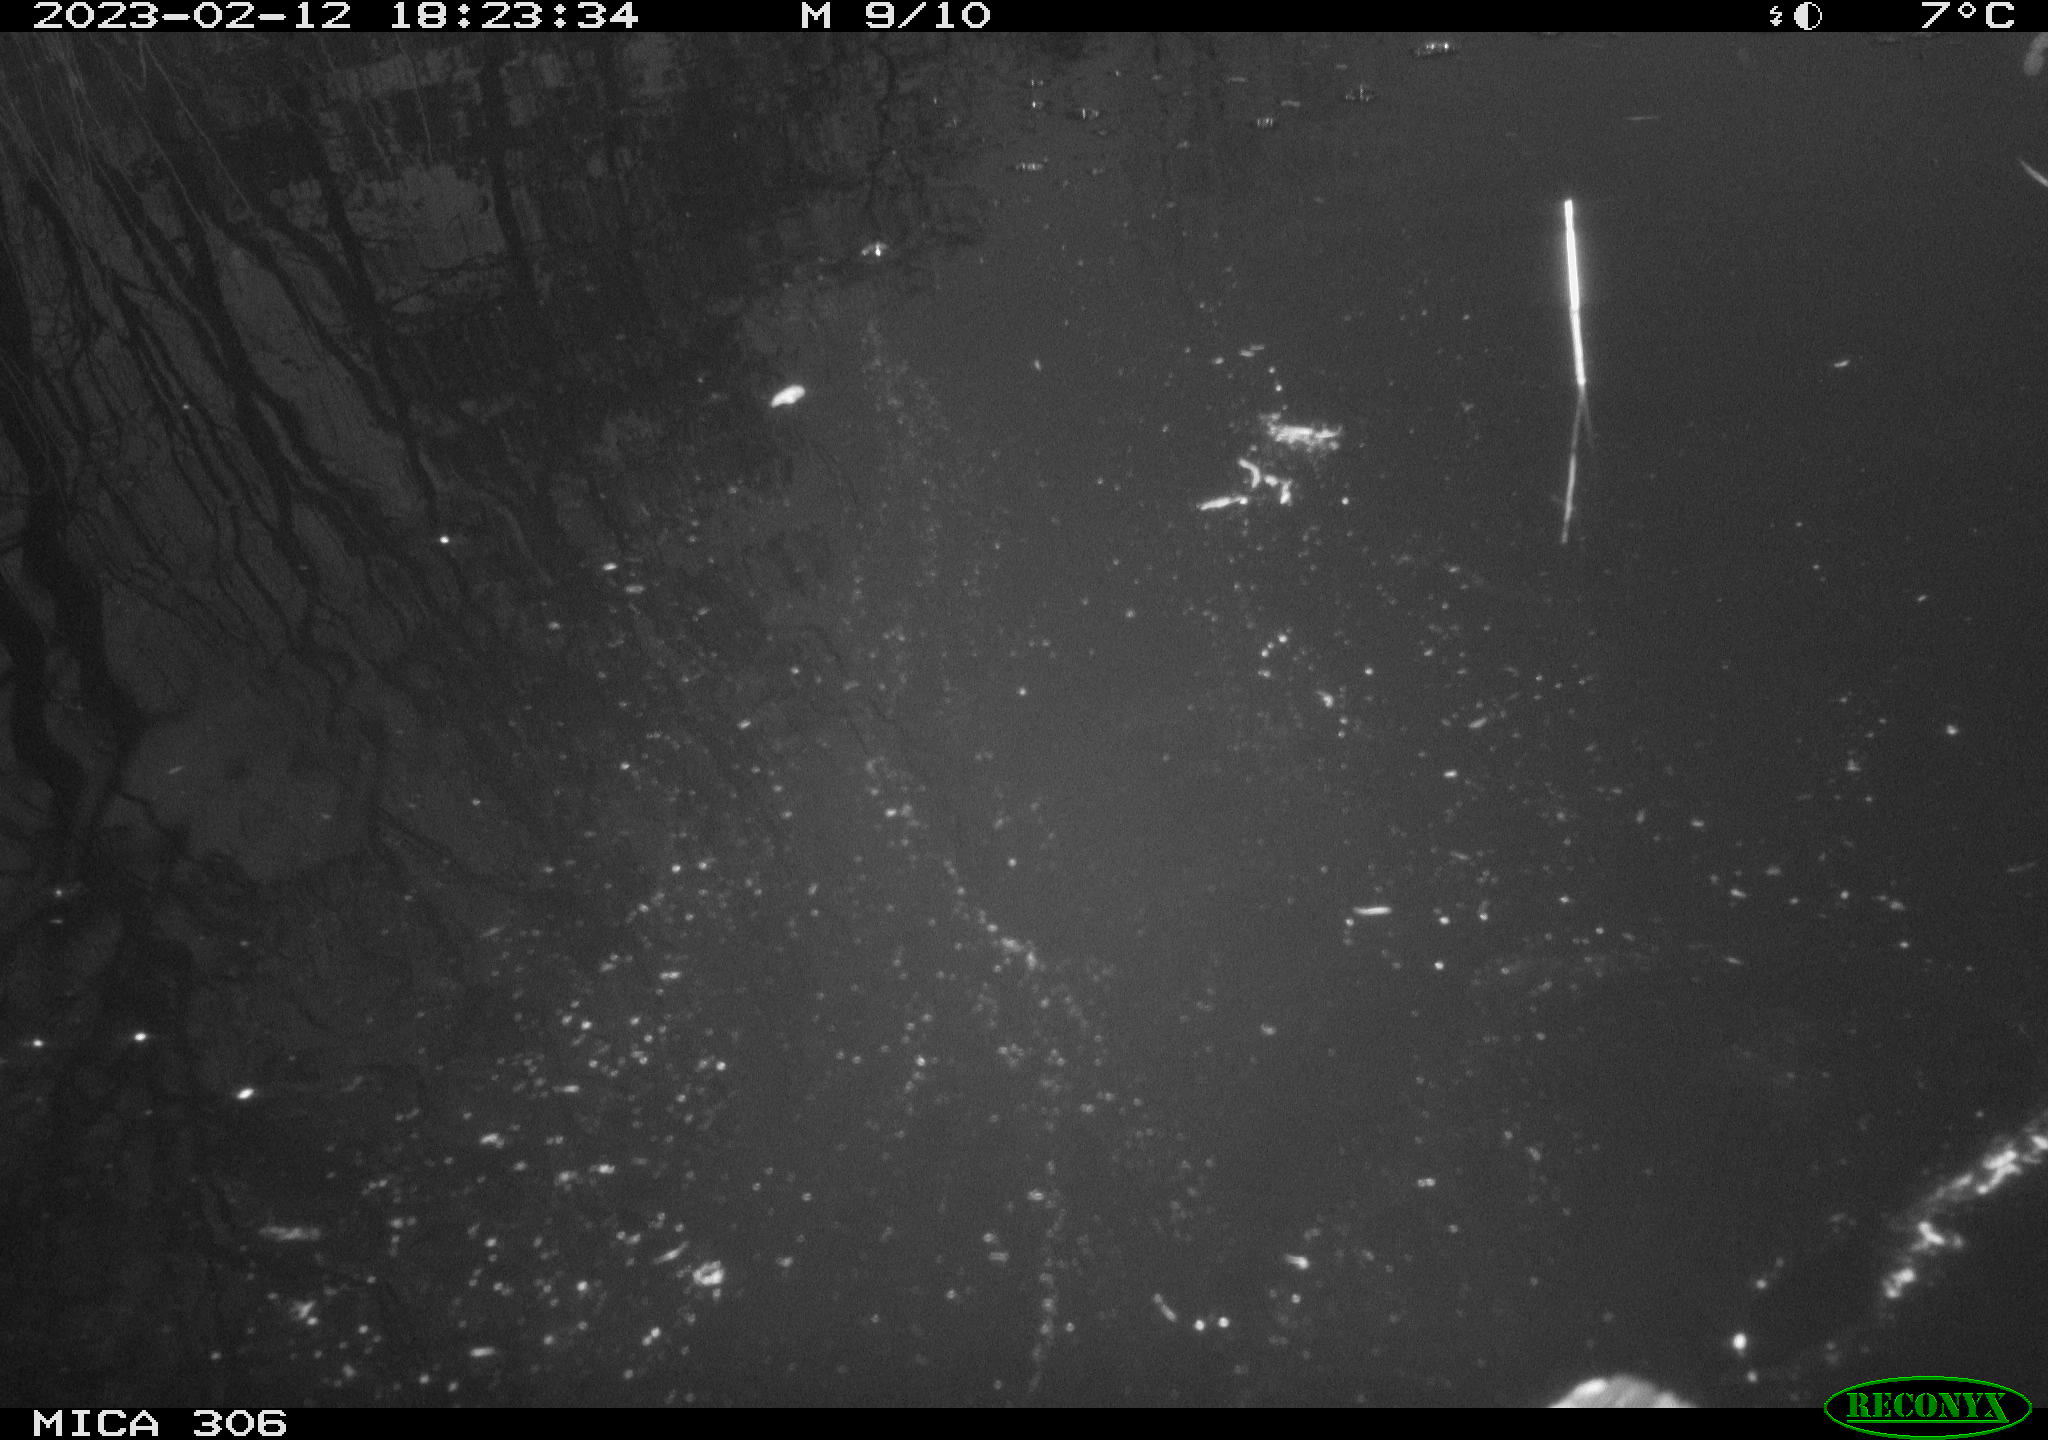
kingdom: Animalia
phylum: Chordata
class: Aves
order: Gruiformes
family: Rallidae
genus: Gallinula
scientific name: Gallinula chloropus
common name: Common moorhen
